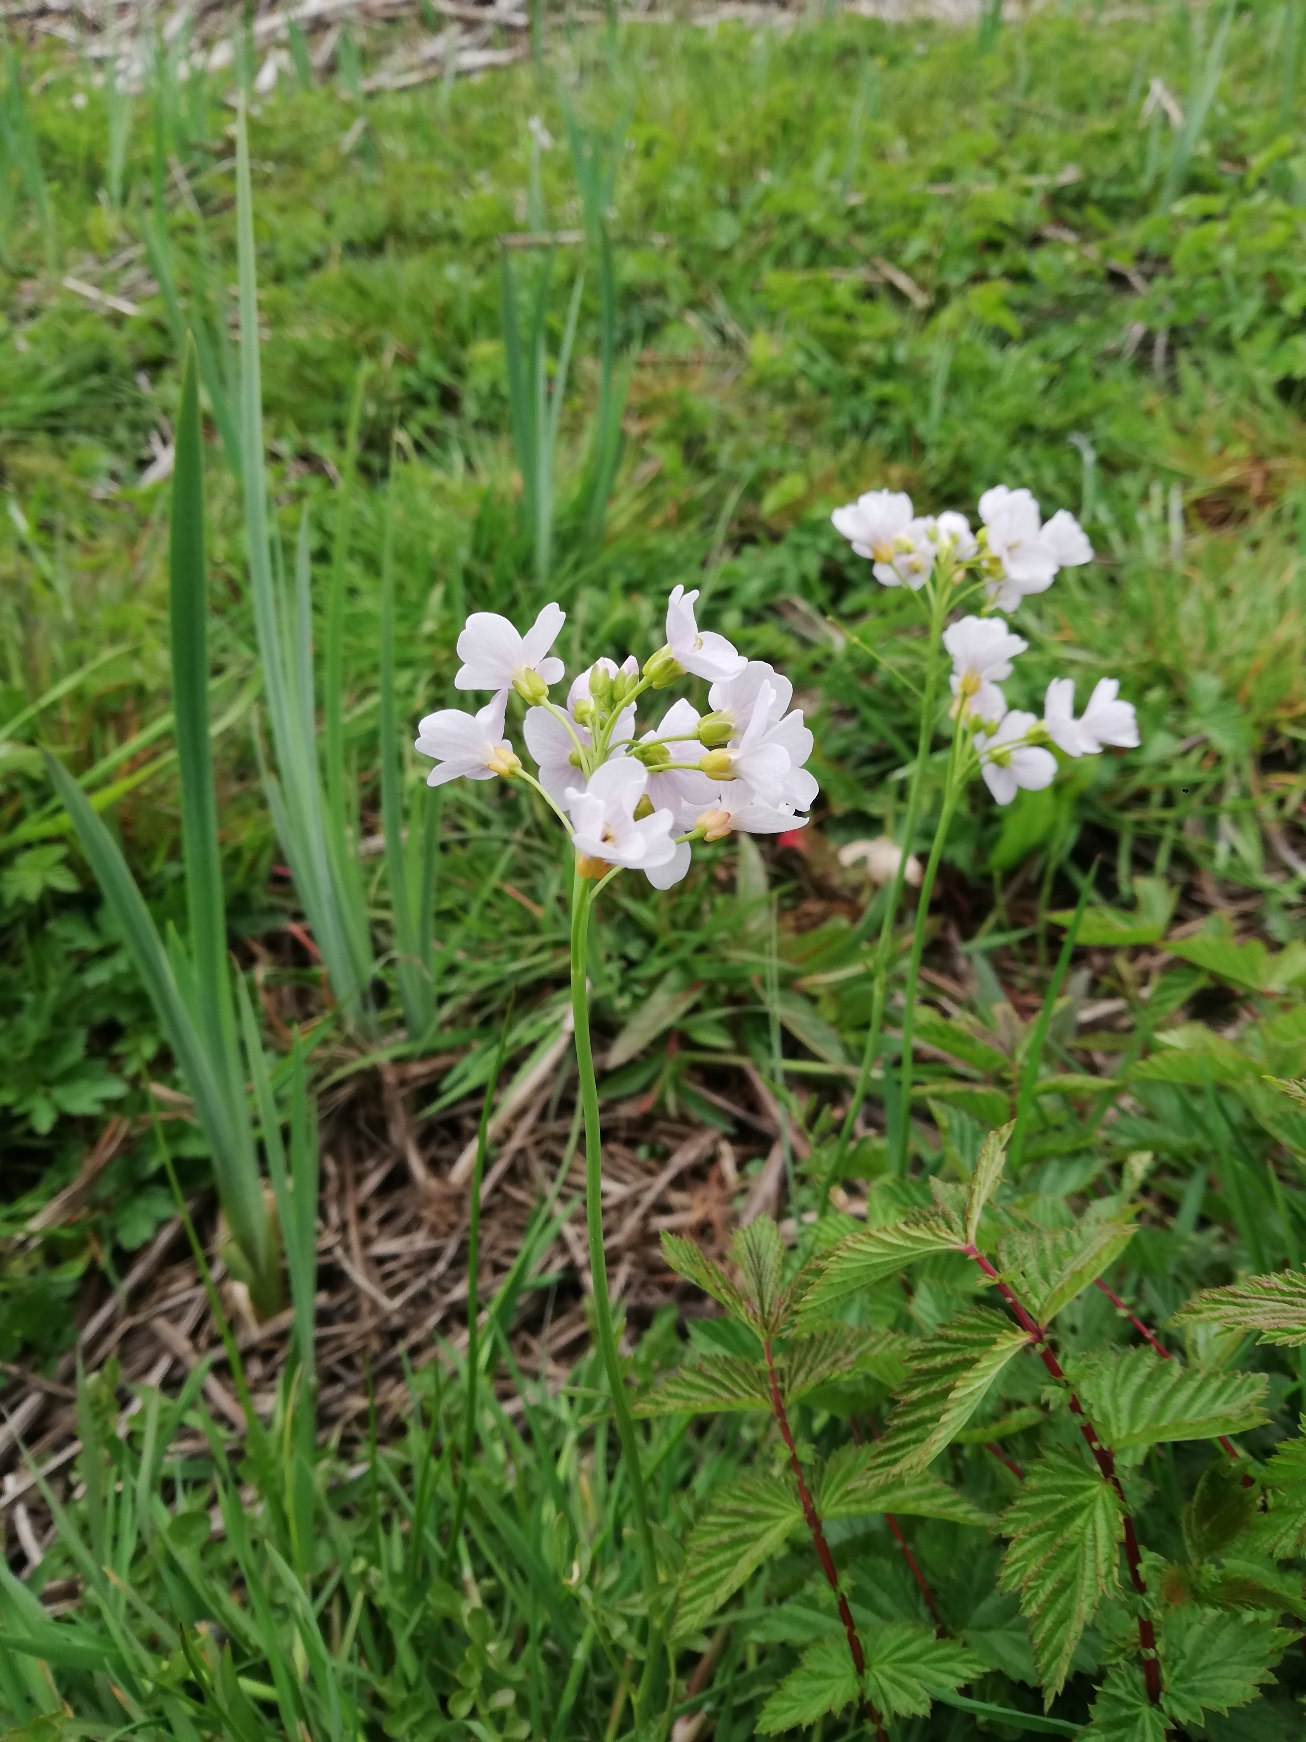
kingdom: Plantae
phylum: Tracheophyta
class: Magnoliopsida
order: Brassicales
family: Brassicaceae
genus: Cardamine
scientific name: Cardamine pratensis
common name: Engkarse
